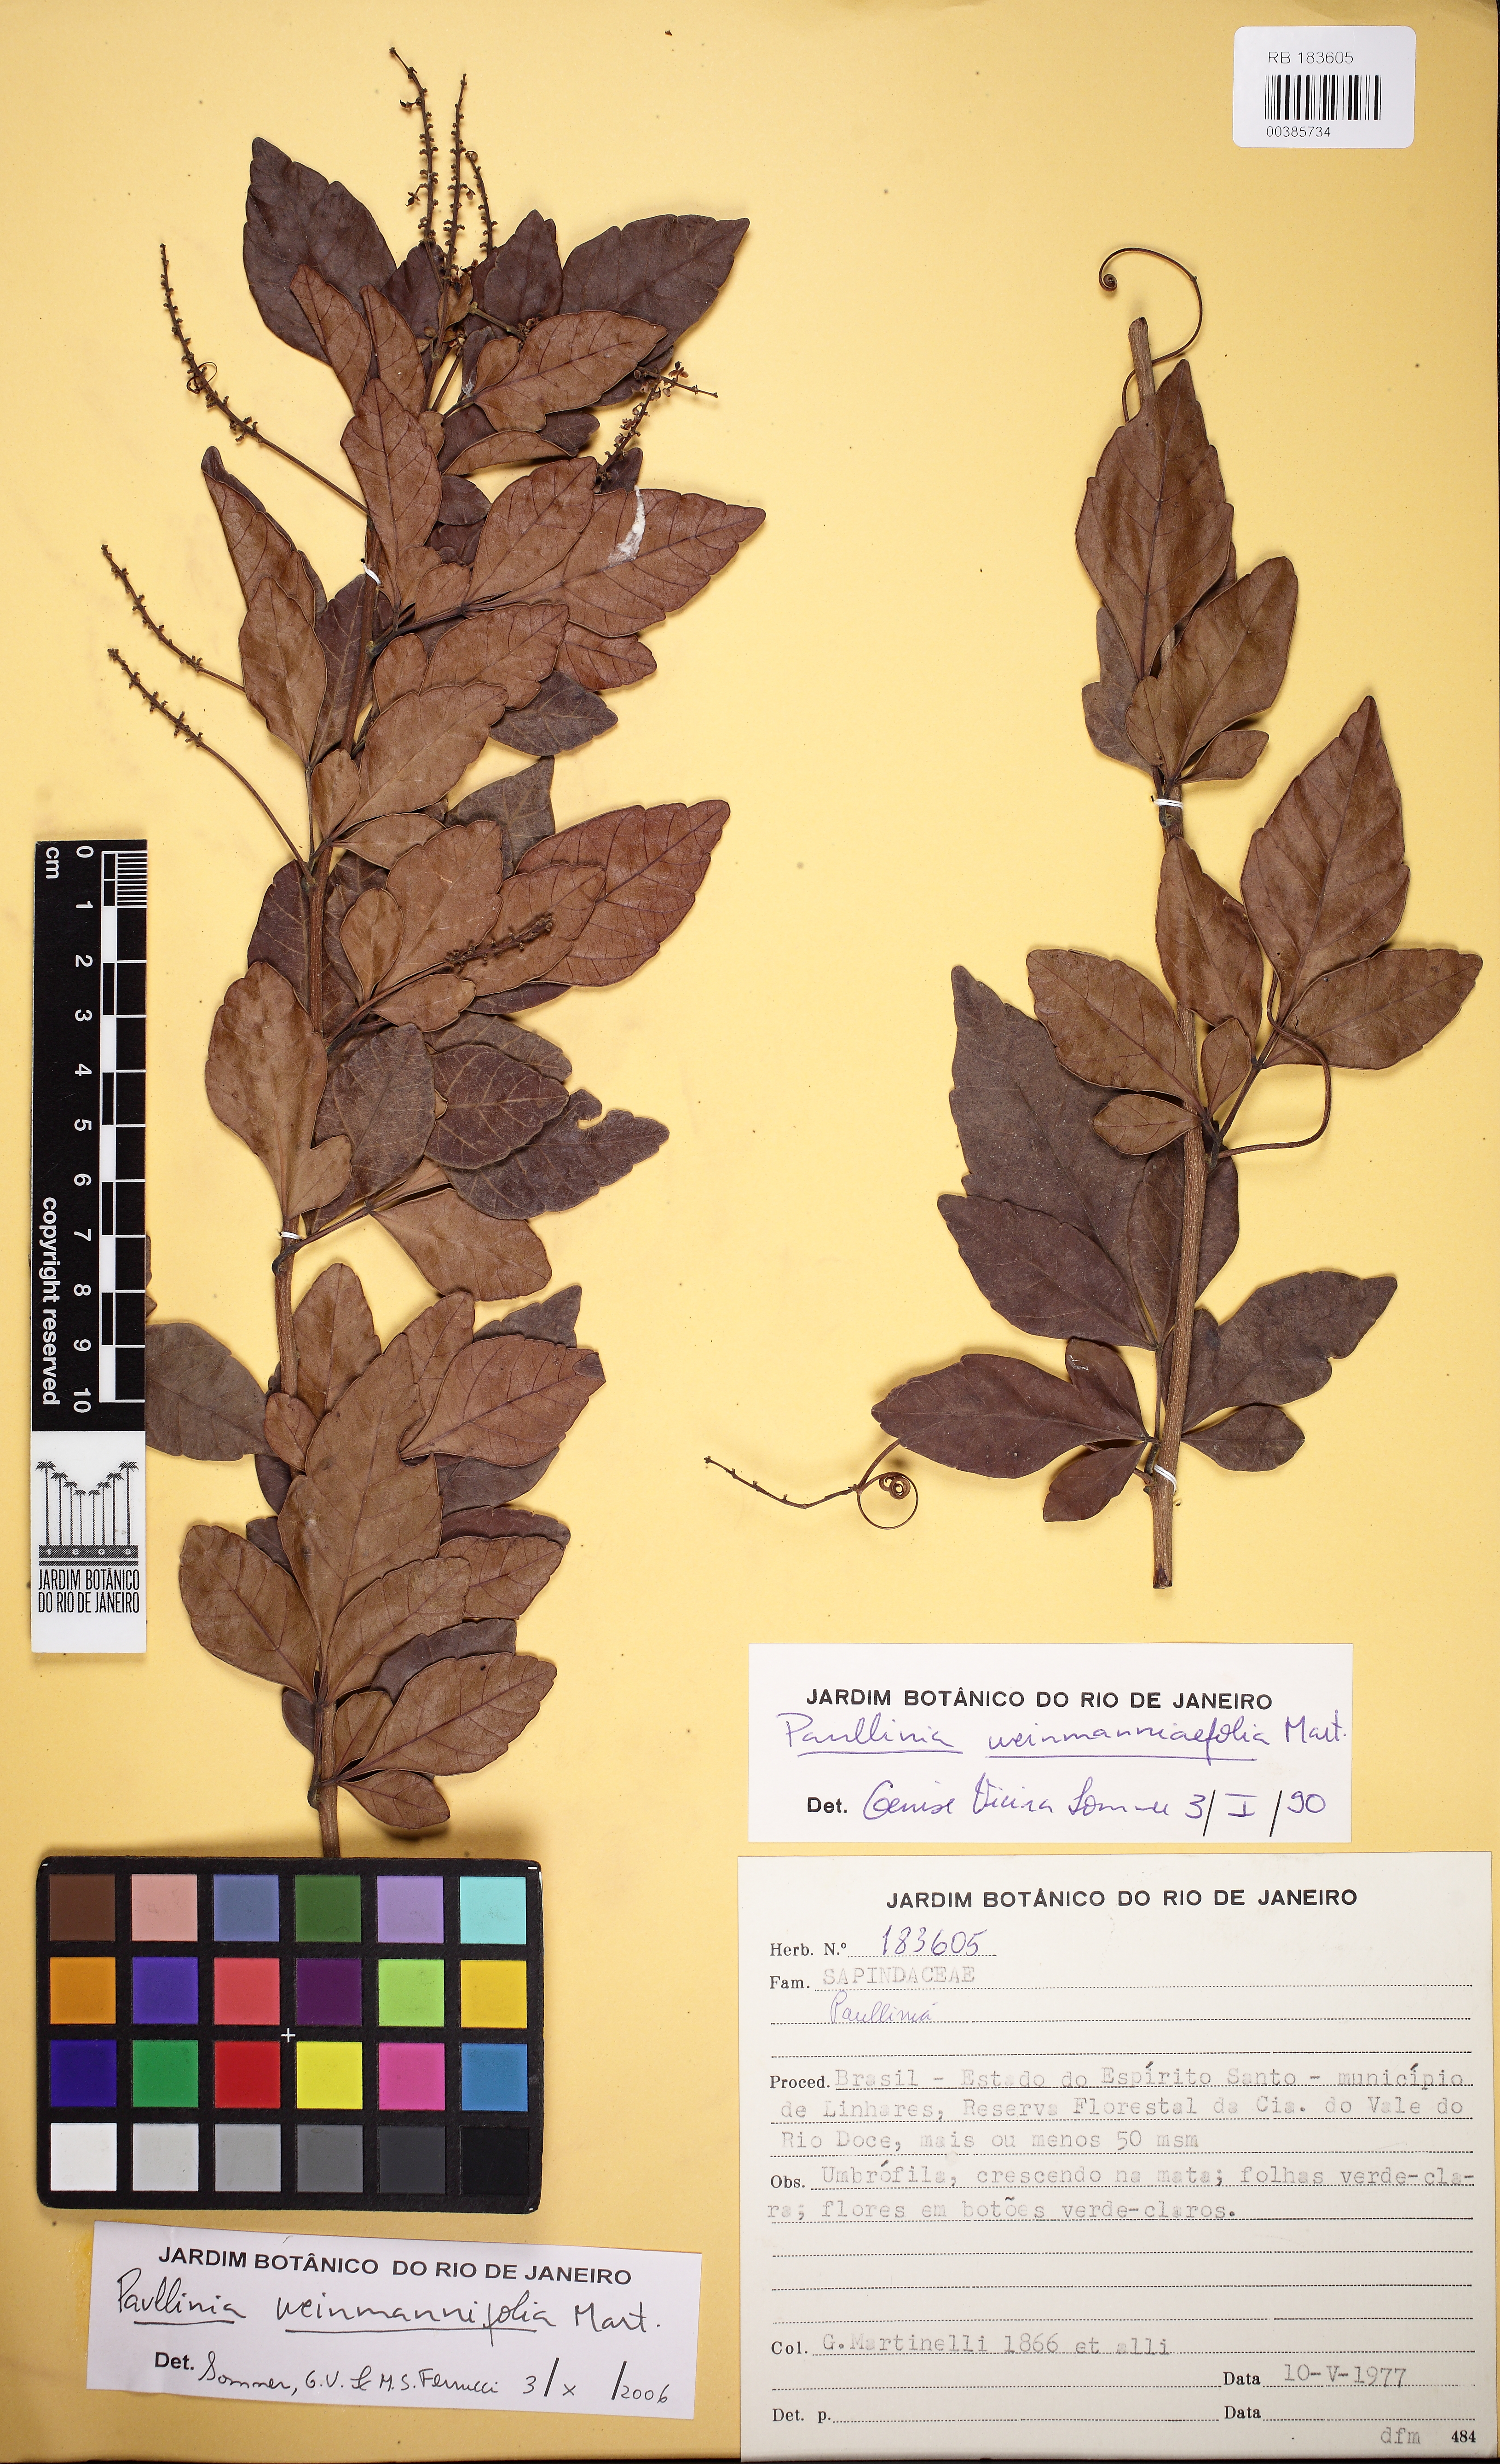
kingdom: Plantae
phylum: Tracheophyta
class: Magnoliopsida
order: Sapindales
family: Sapindaceae
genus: Paullinia
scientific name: Paullinia weinmanniifolia
